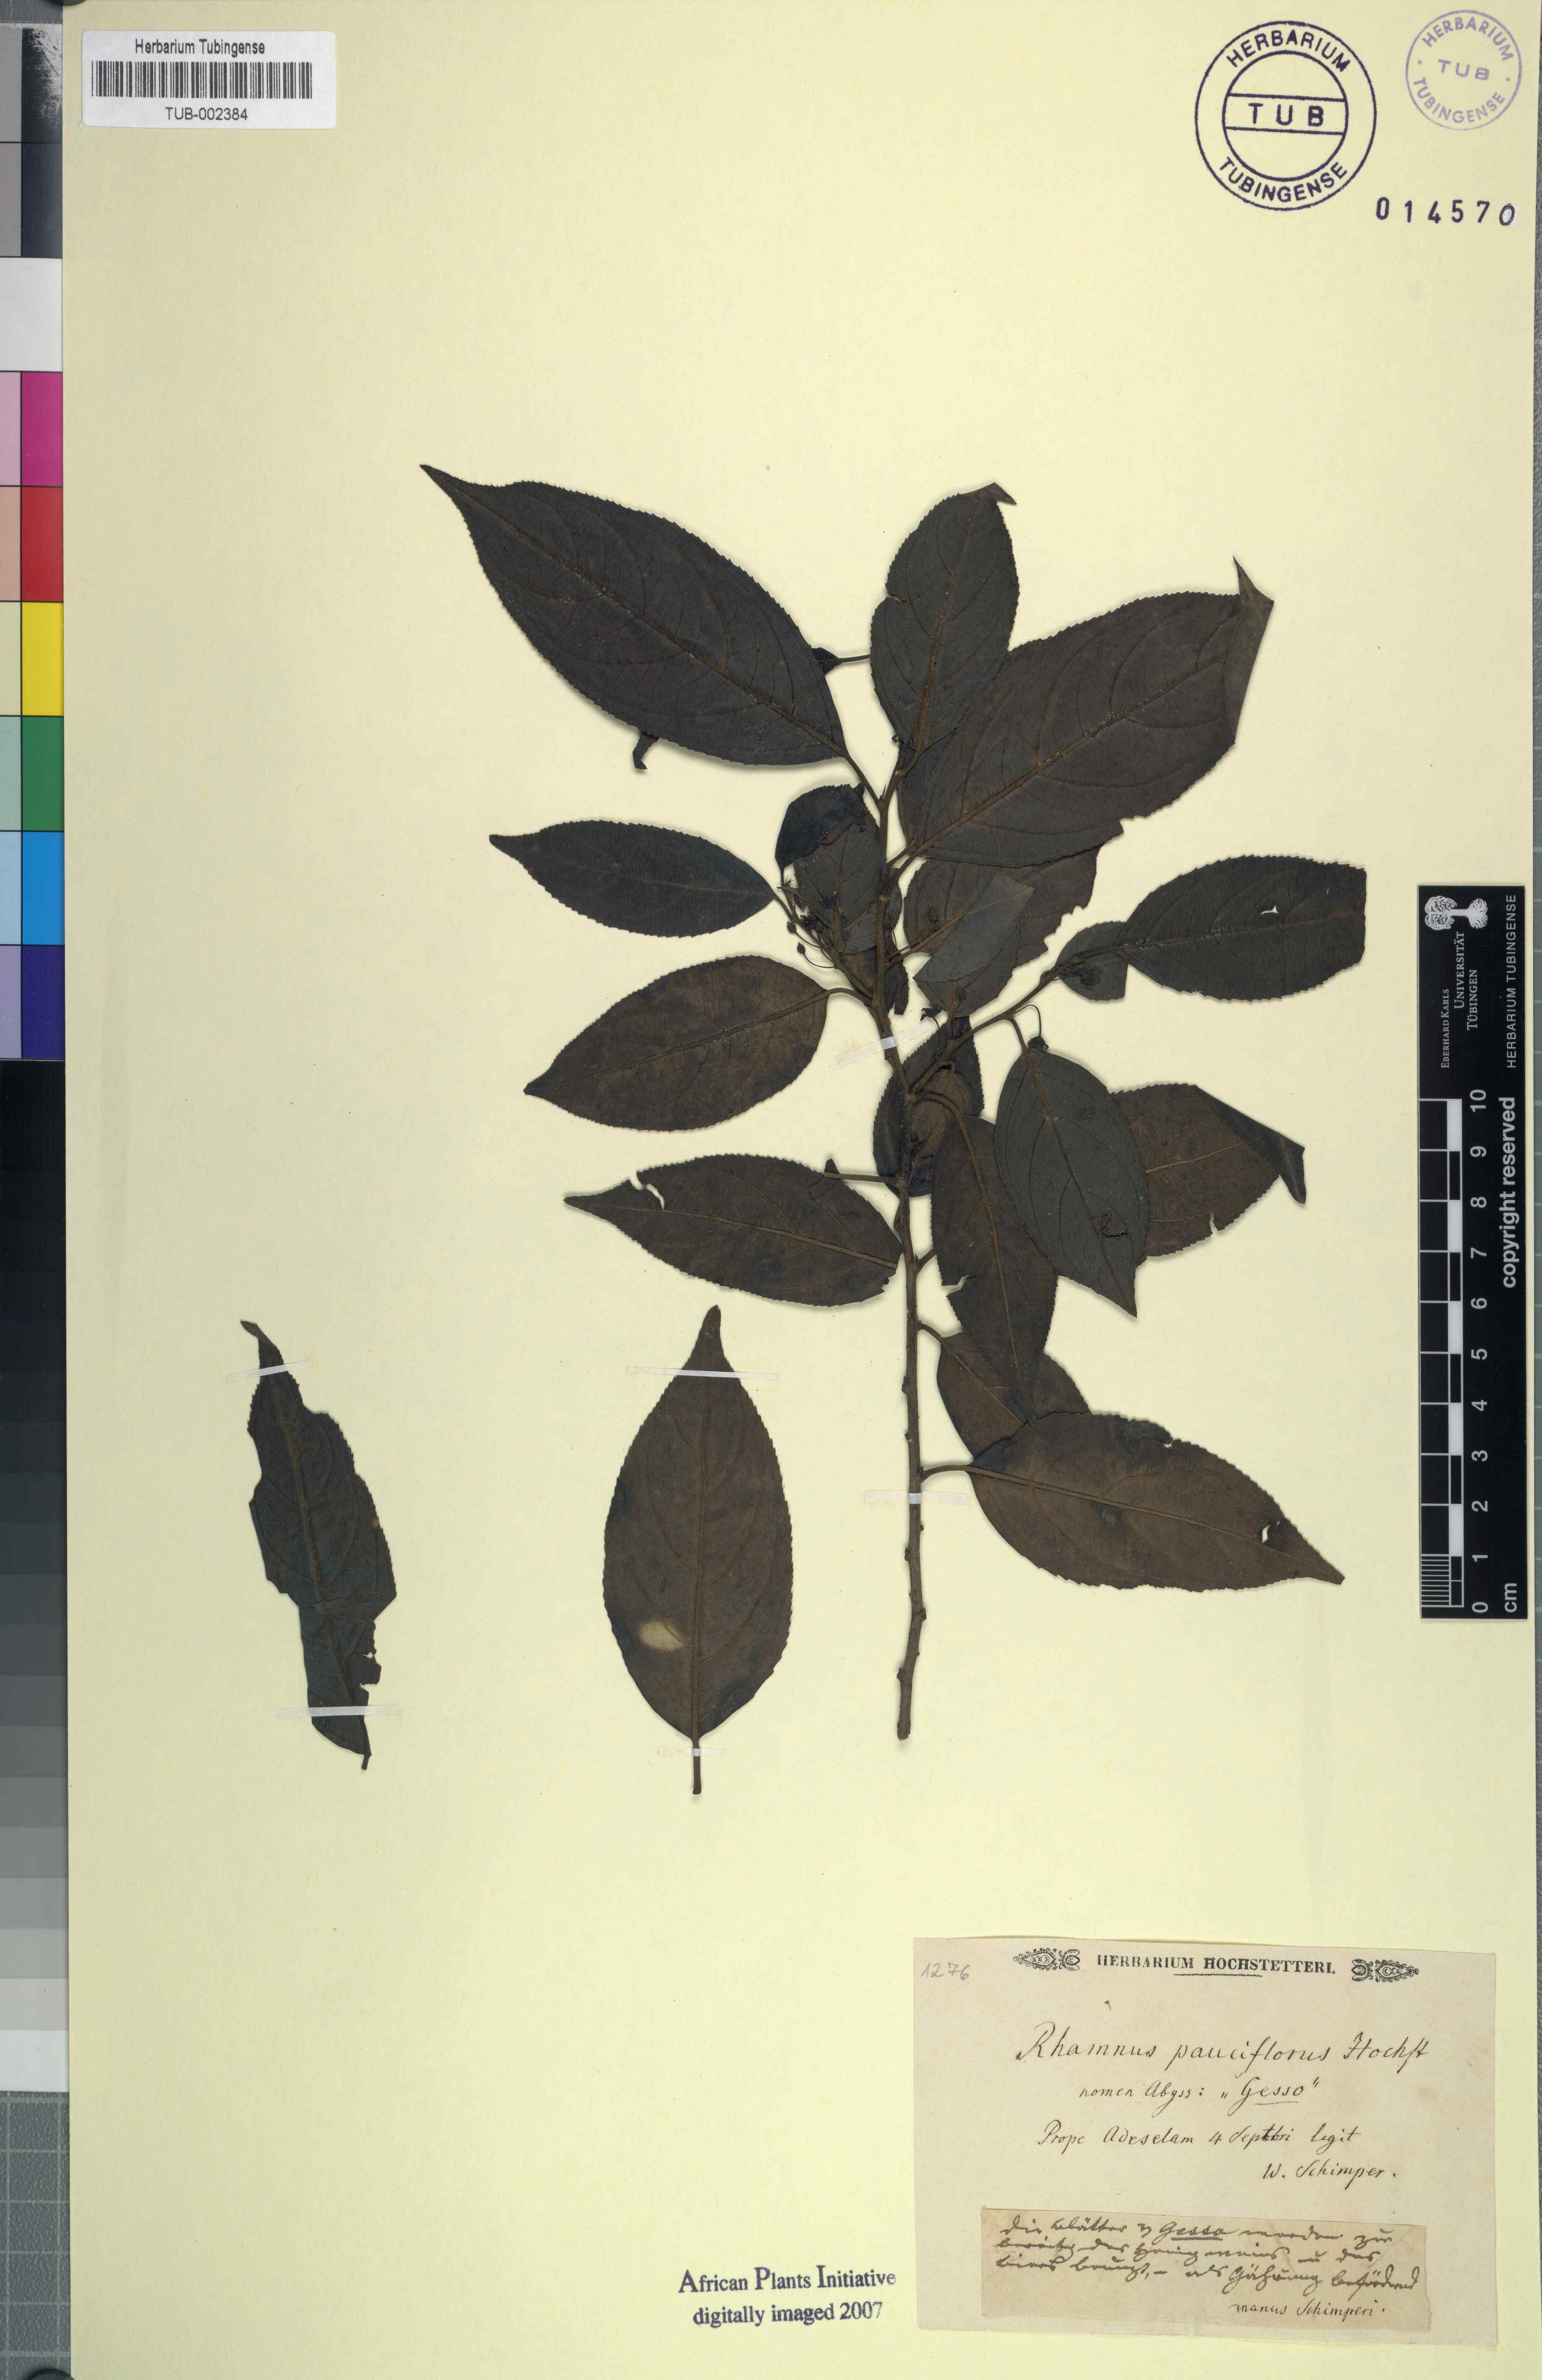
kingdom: Plantae
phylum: Tracheophyta
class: Magnoliopsida
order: Rosales
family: Rhamnaceae
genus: Rhamnus
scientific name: Rhamnus prinoides
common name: Dogwood
